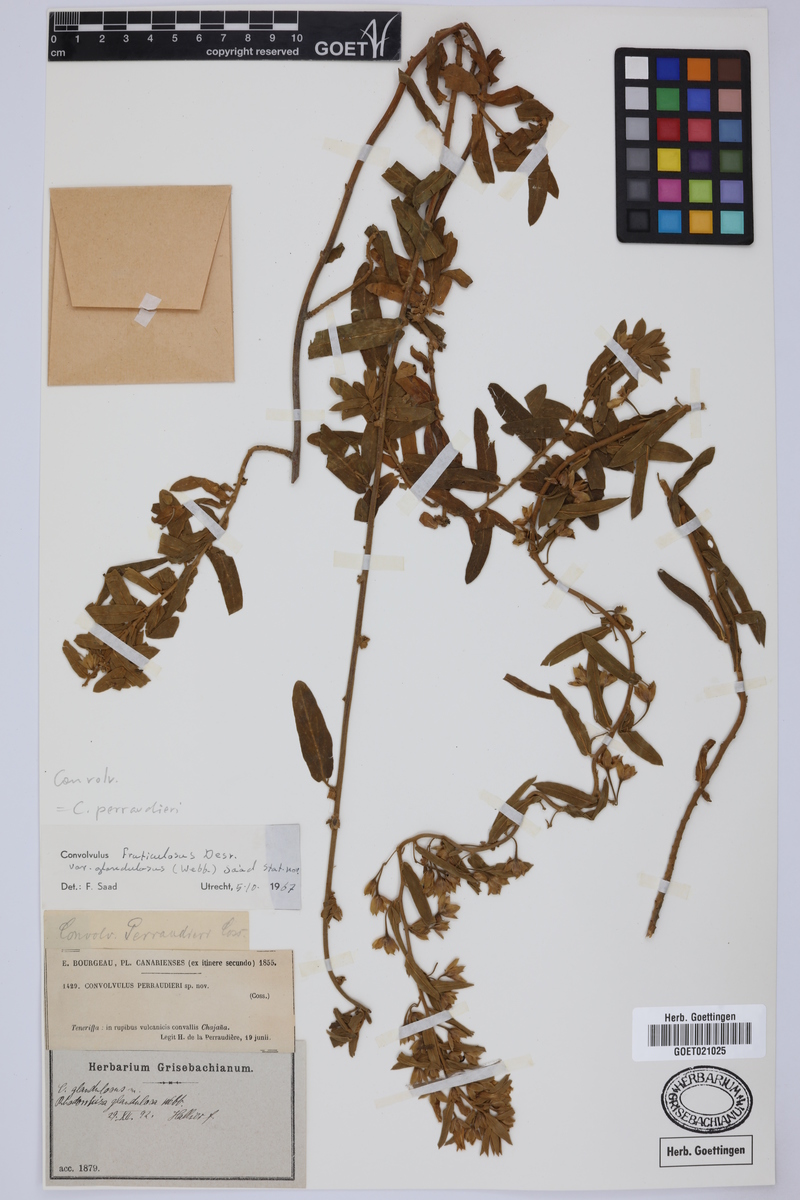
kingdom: Plantae
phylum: Tracheophyta
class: Magnoliopsida
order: Solanales
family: Convolvulaceae
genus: Convolvulus
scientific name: Convolvulus perraudieri
